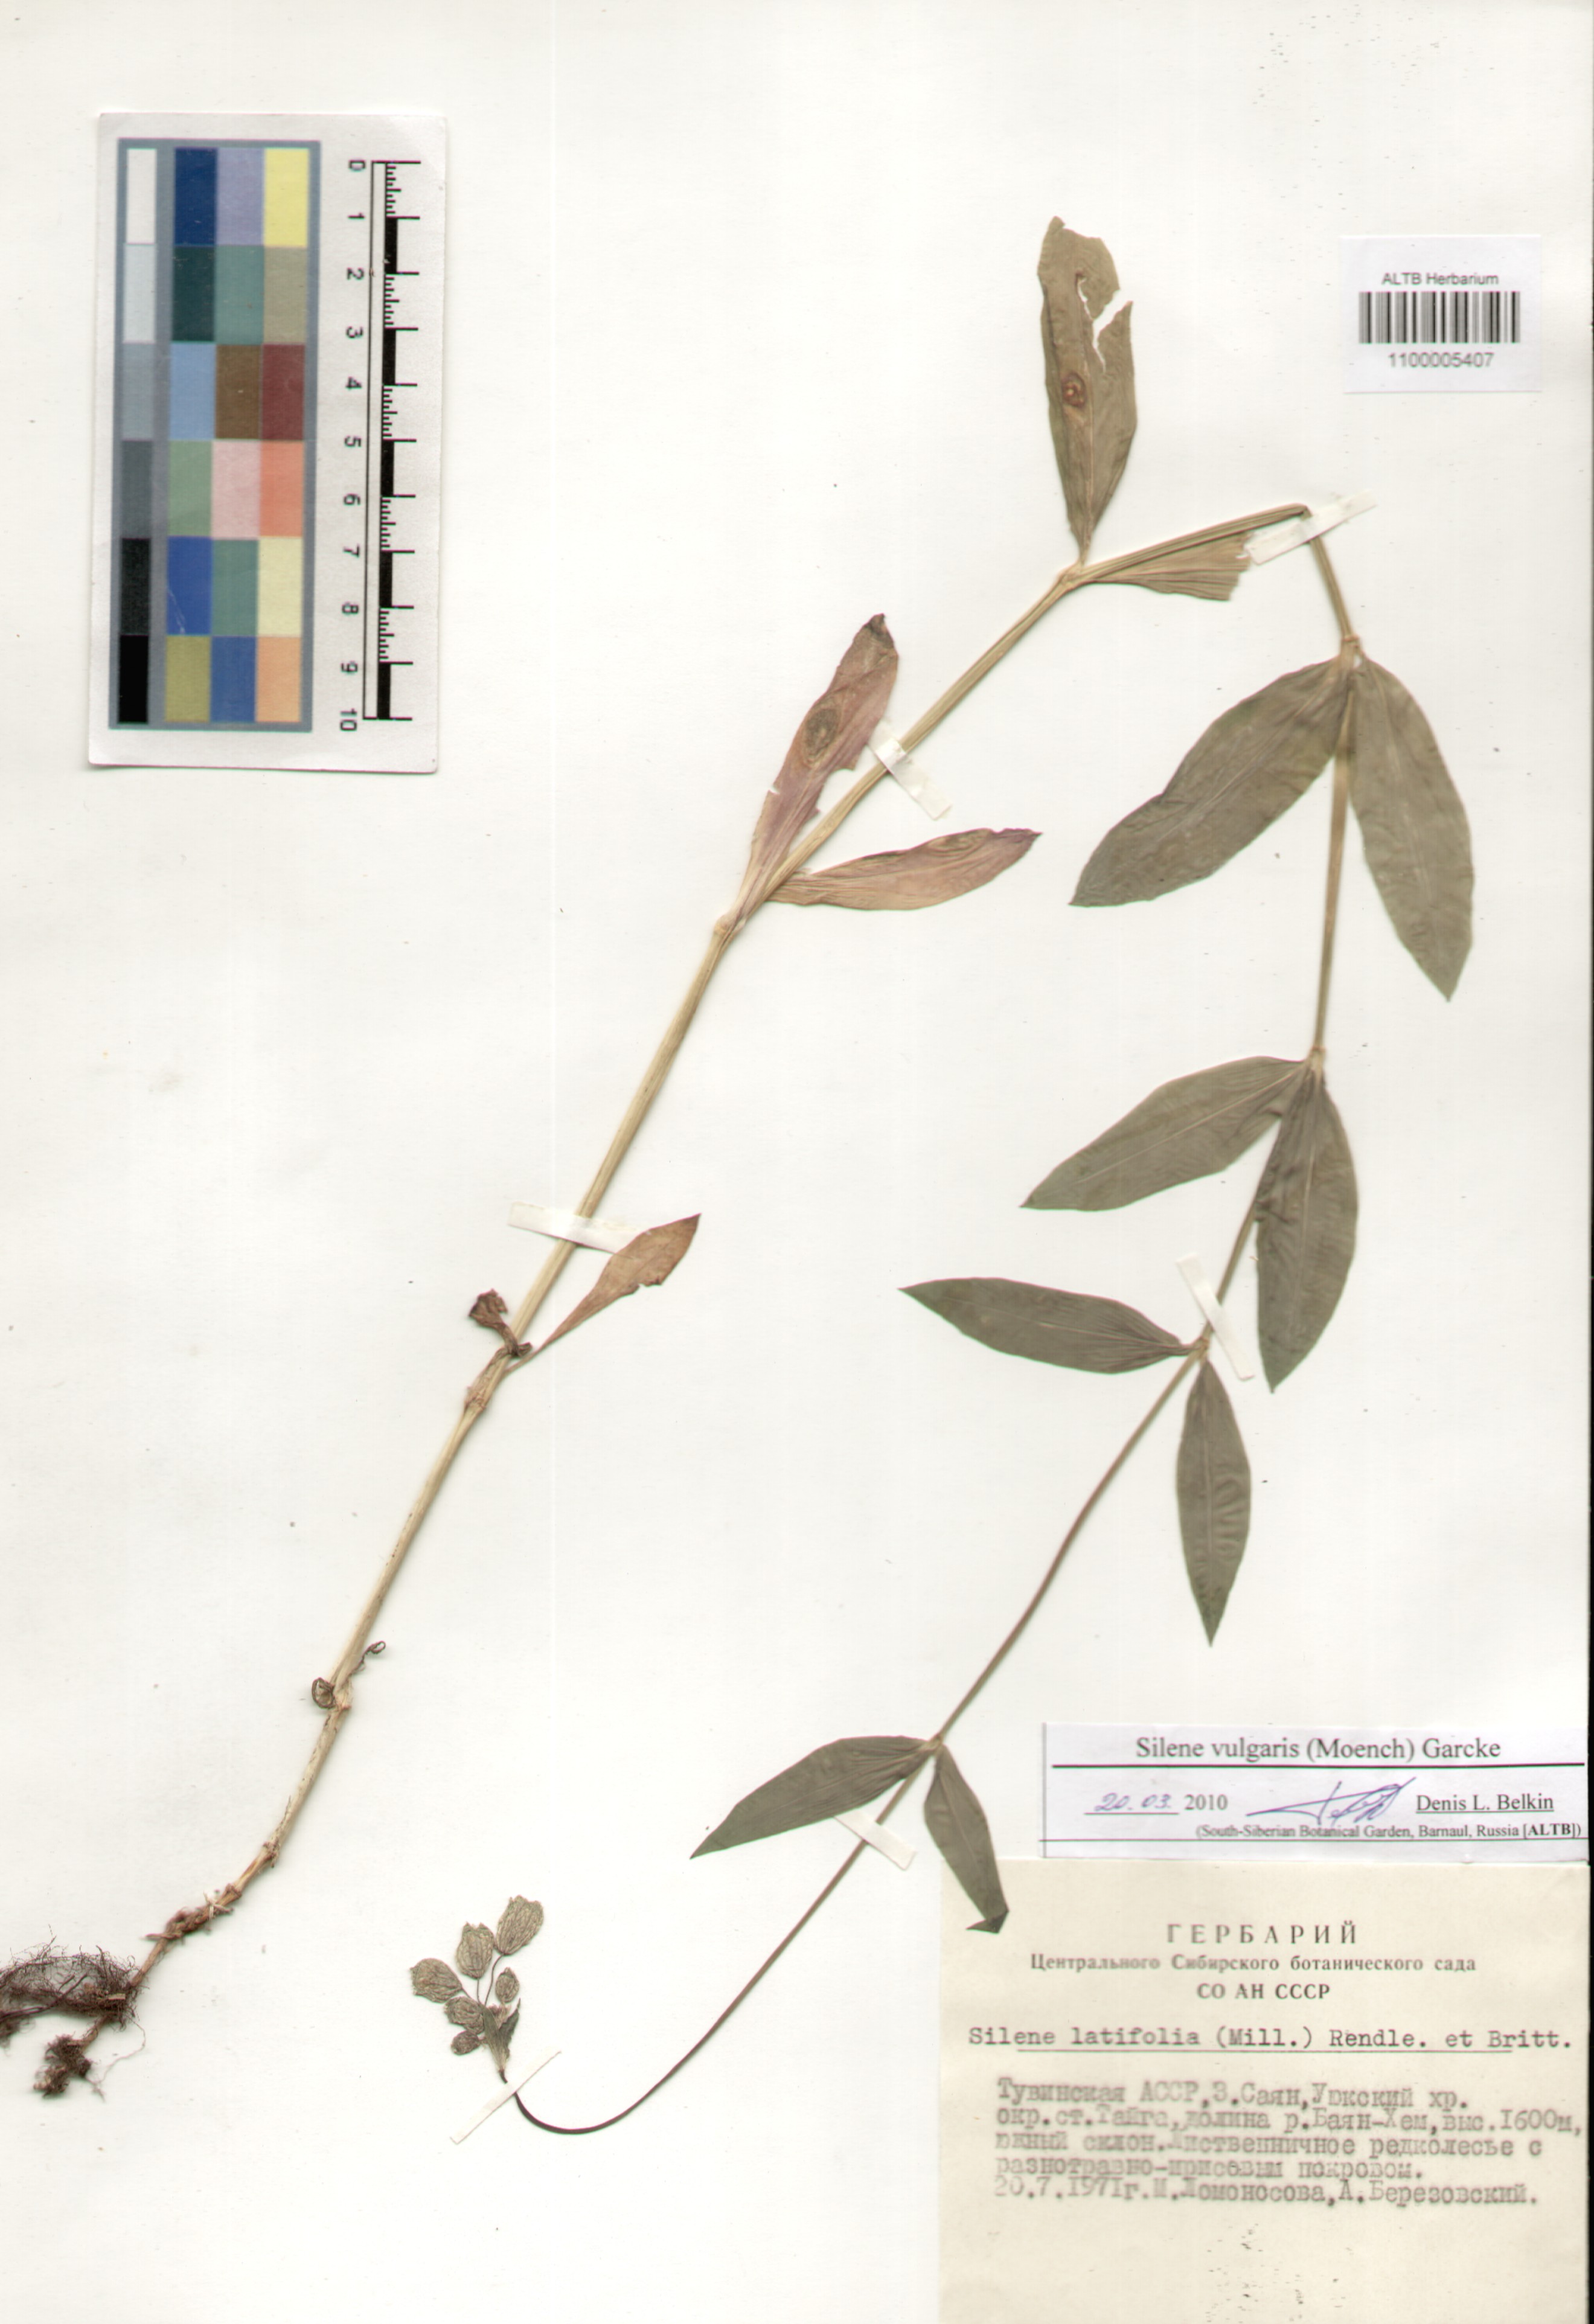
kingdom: Plantae
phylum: Tracheophyta
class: Magnoliopsida
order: Caryophyllales
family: Caryophyllaceae
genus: Silene
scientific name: Silene vulgaris
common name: Bladder campion
